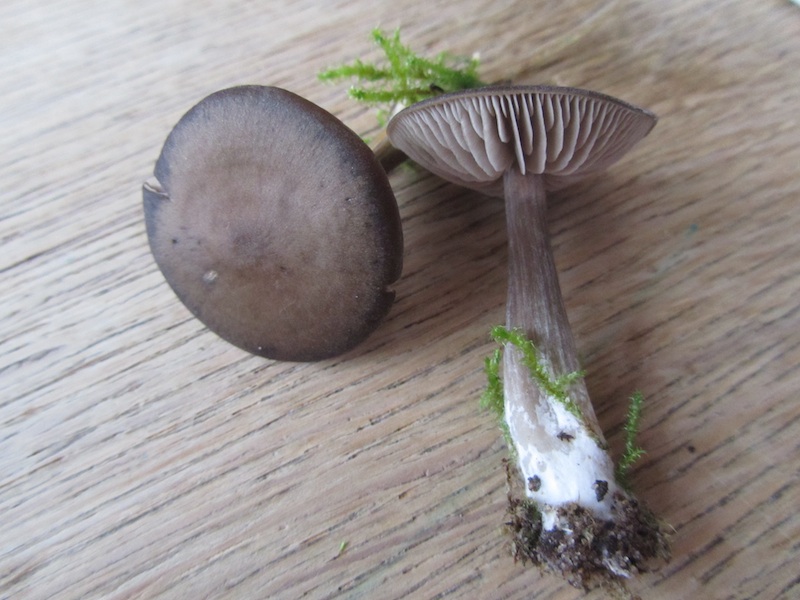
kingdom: Fungi
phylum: Basidiomycota
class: Agaricomycetes
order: Agaricales
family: Entolomataceae
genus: Entoloma
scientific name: Entoloma vindobonense
